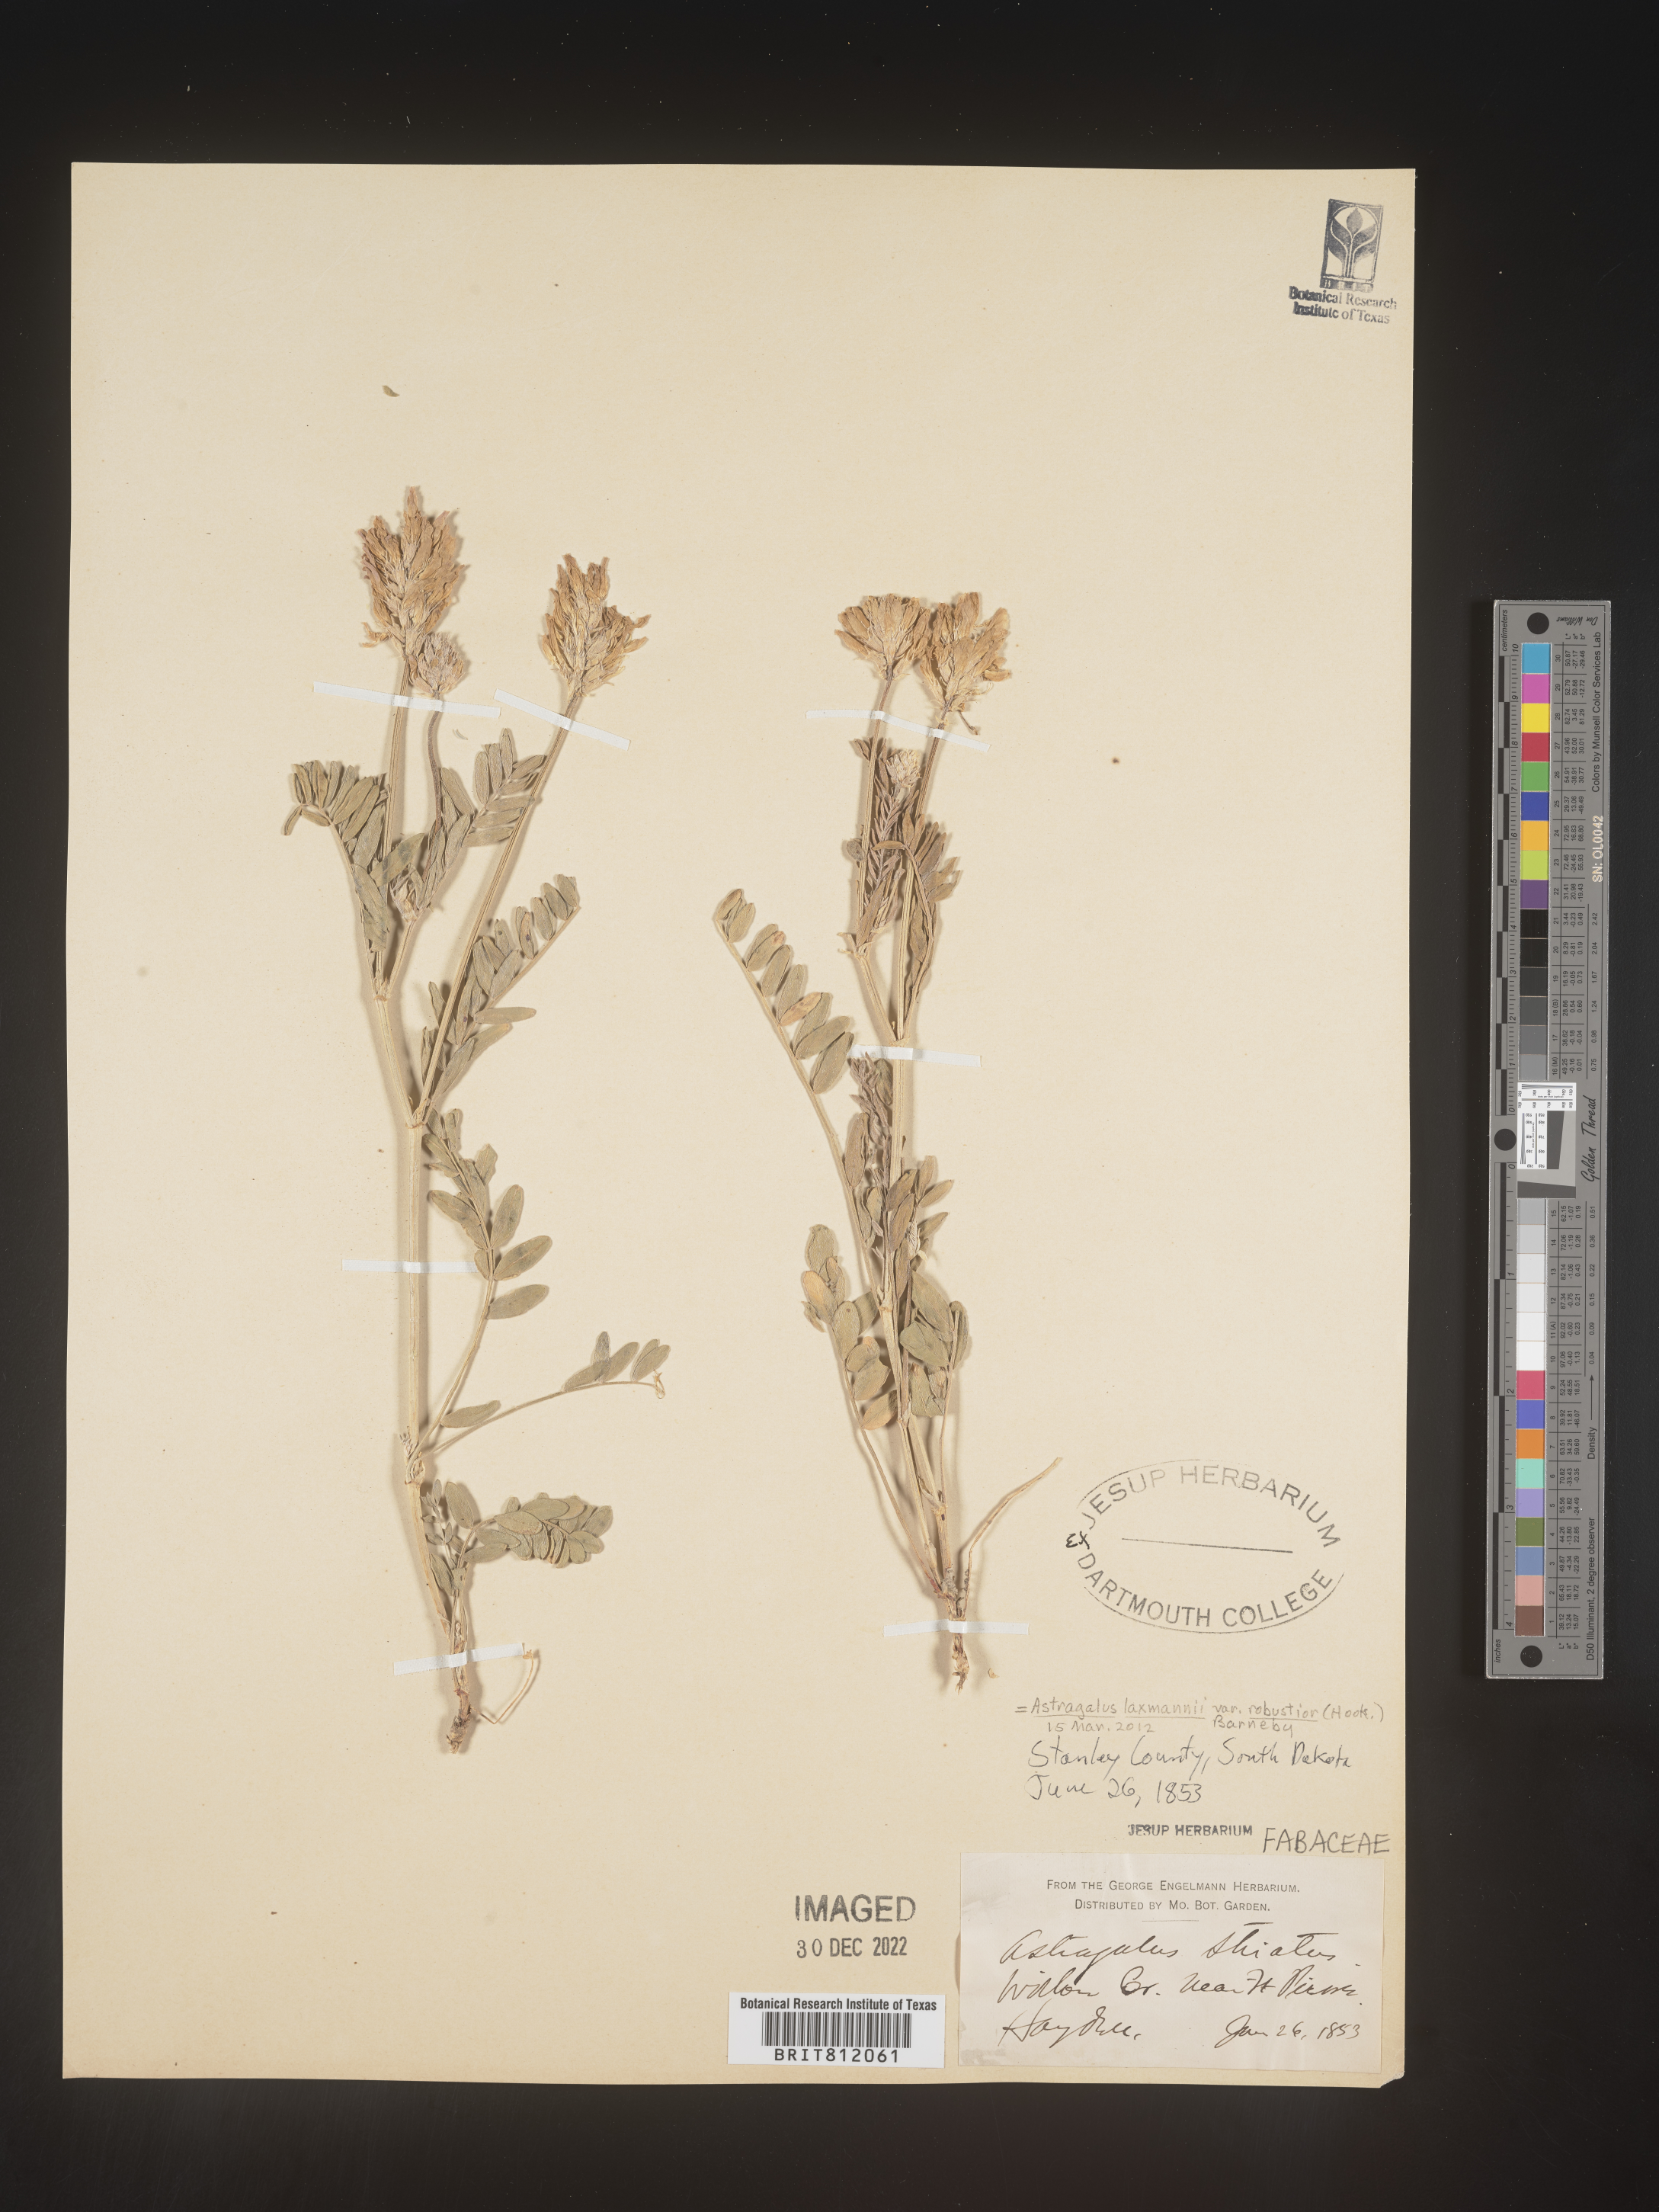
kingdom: Plantae
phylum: Tracheophyta
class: Magnoliopsida
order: Fabales
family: Fabaceae
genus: Astragalus
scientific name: Astragalus
